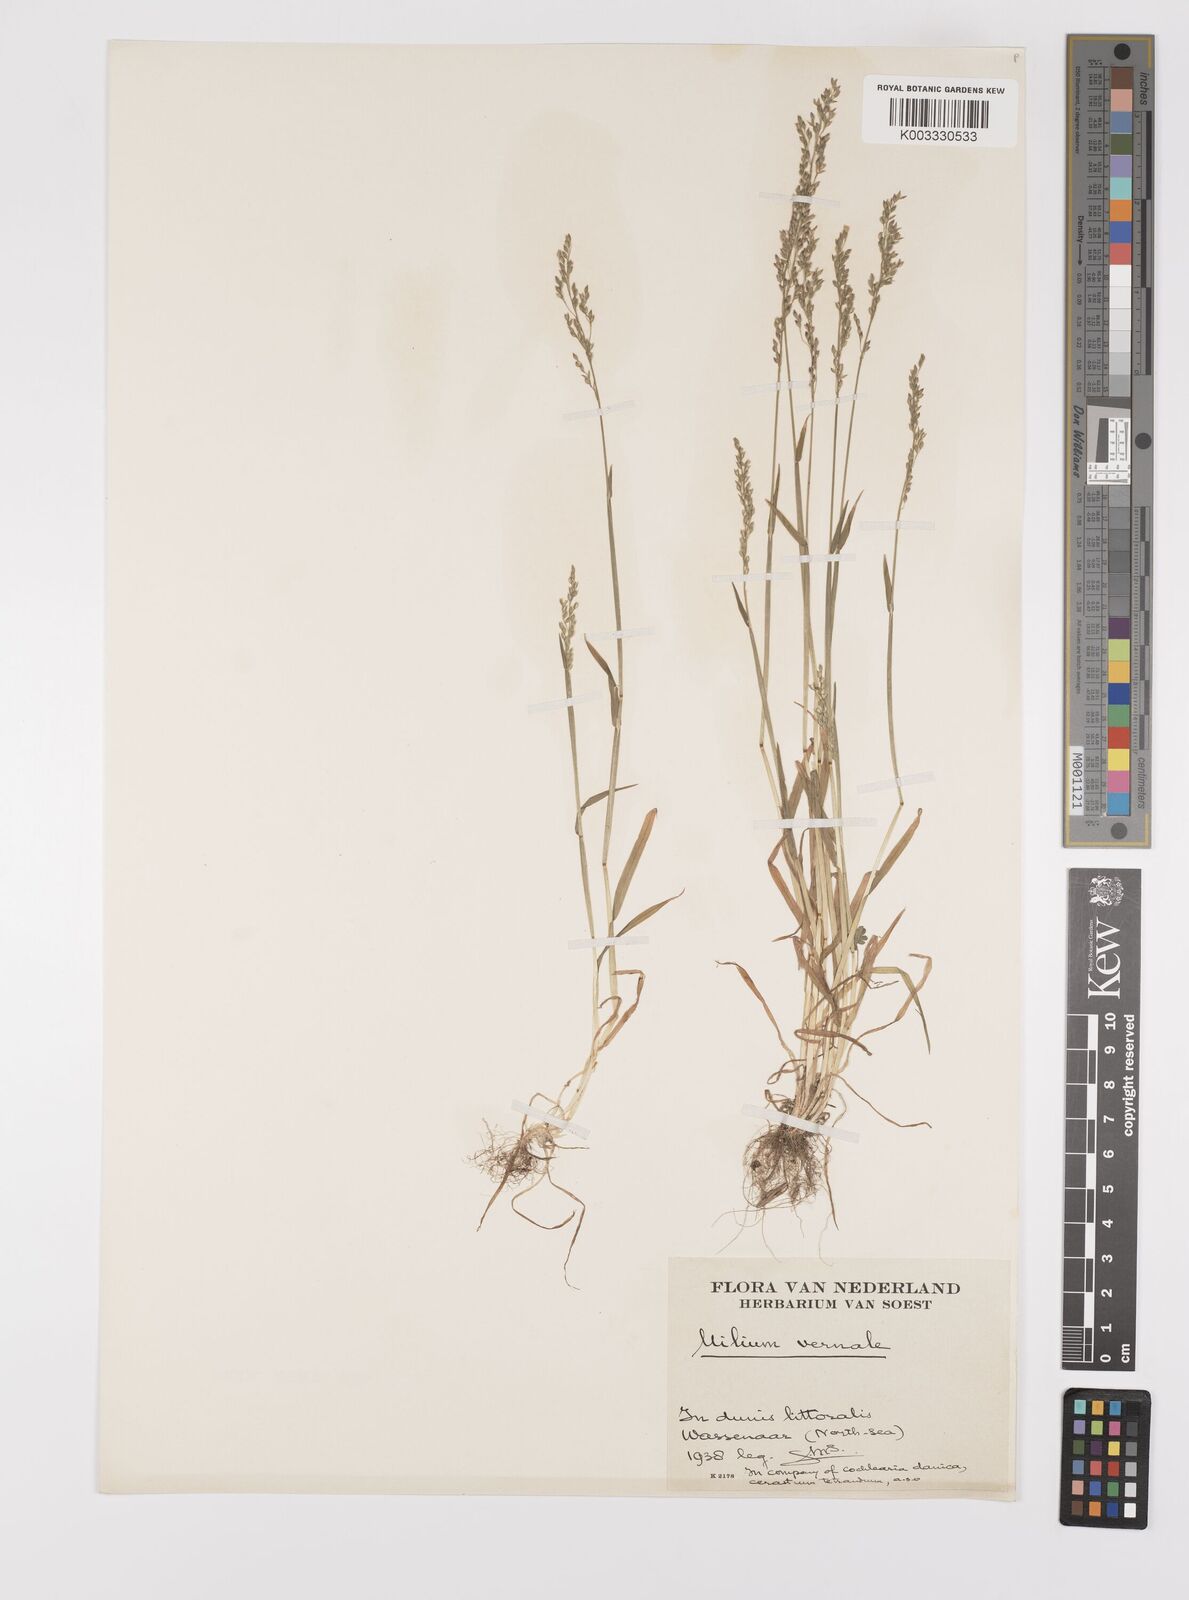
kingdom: Plantae
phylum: Tracheophyta
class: Liliopsida
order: Poales
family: Poaceae
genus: Milium
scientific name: Milium vernale
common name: Early millet
